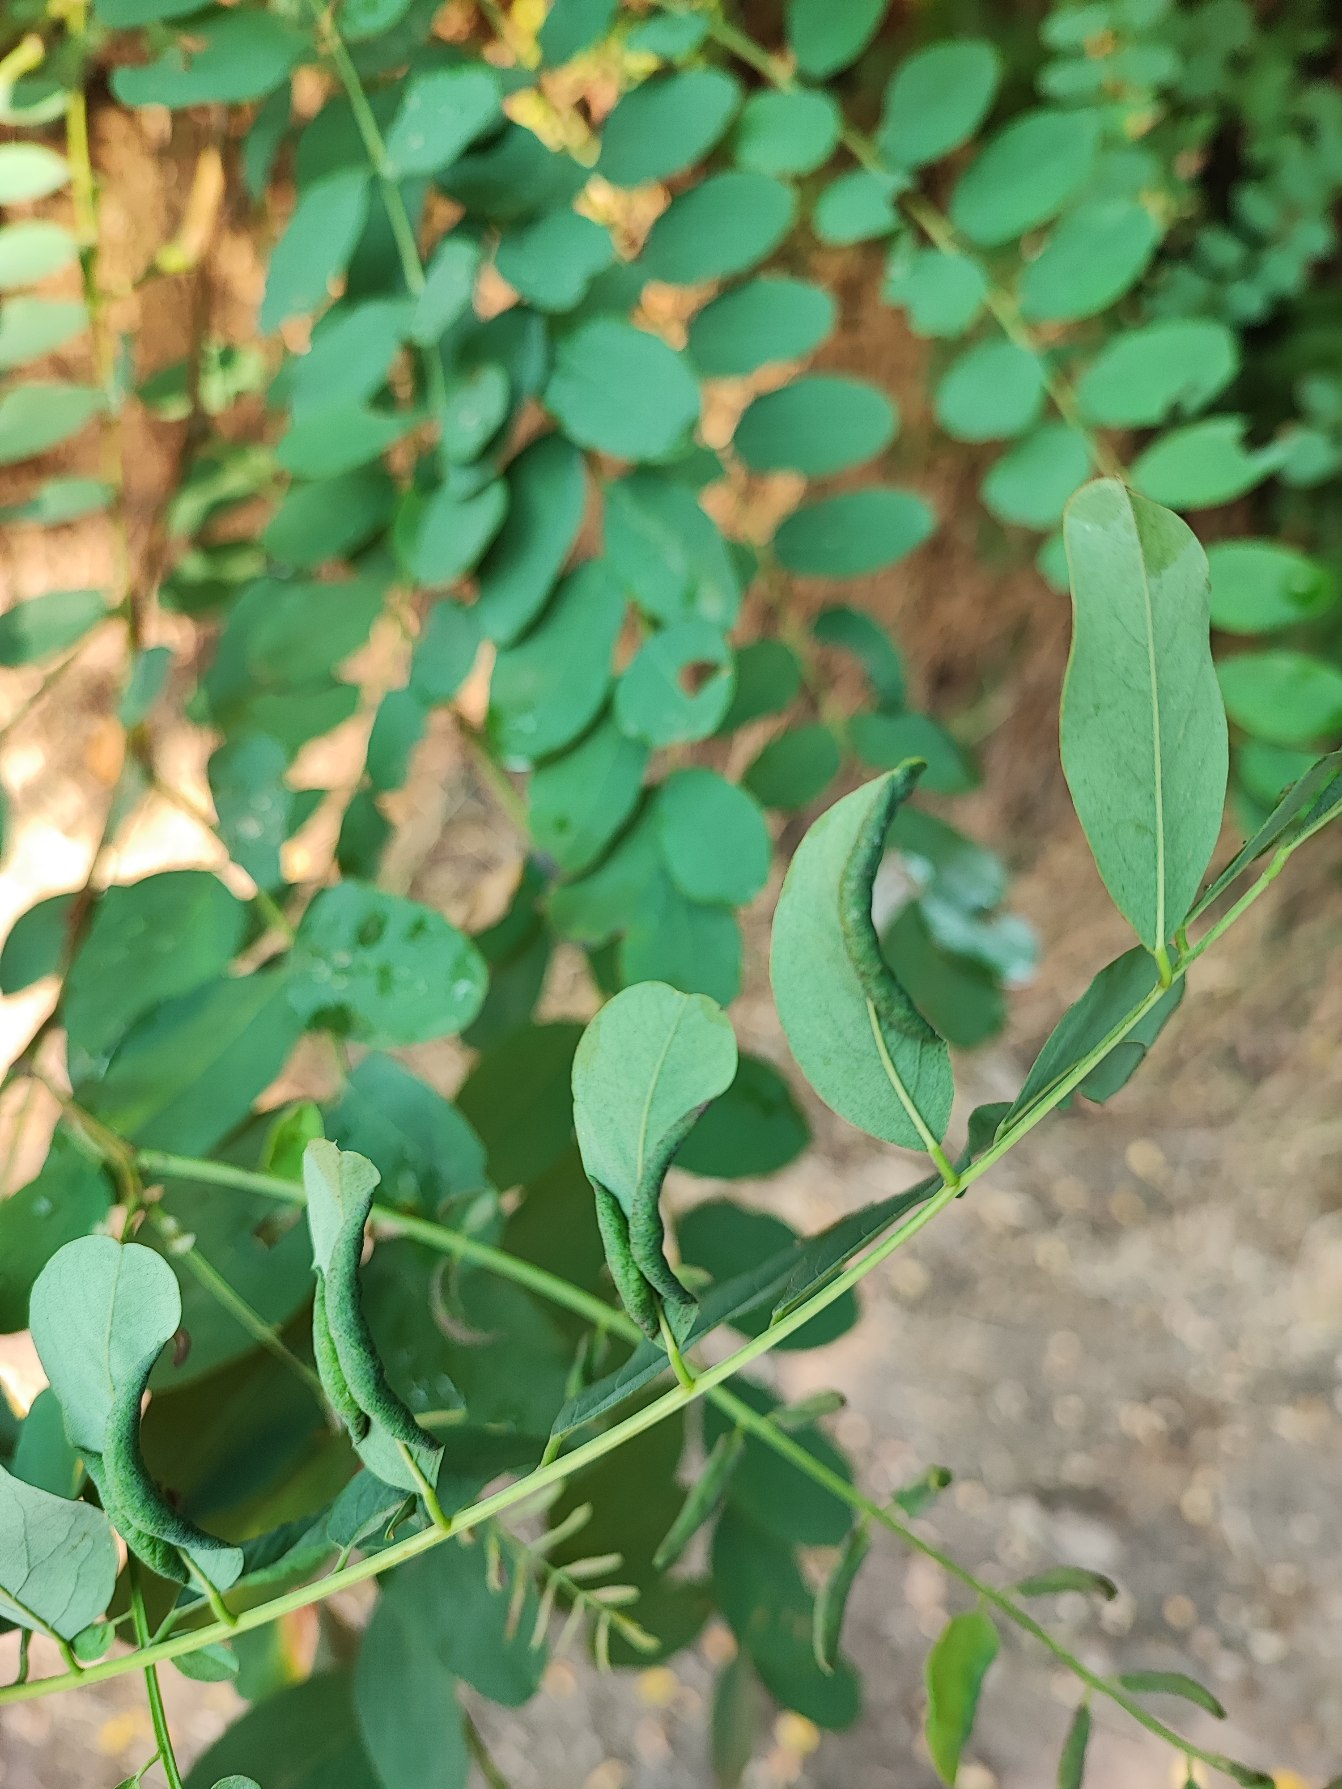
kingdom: Animalia
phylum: Arthropoda
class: Insecta
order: Diptera
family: Cecidomyiidae
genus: Obolodiplosis
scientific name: Obolodiplosis robiniae
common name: Robiniegalmyg
